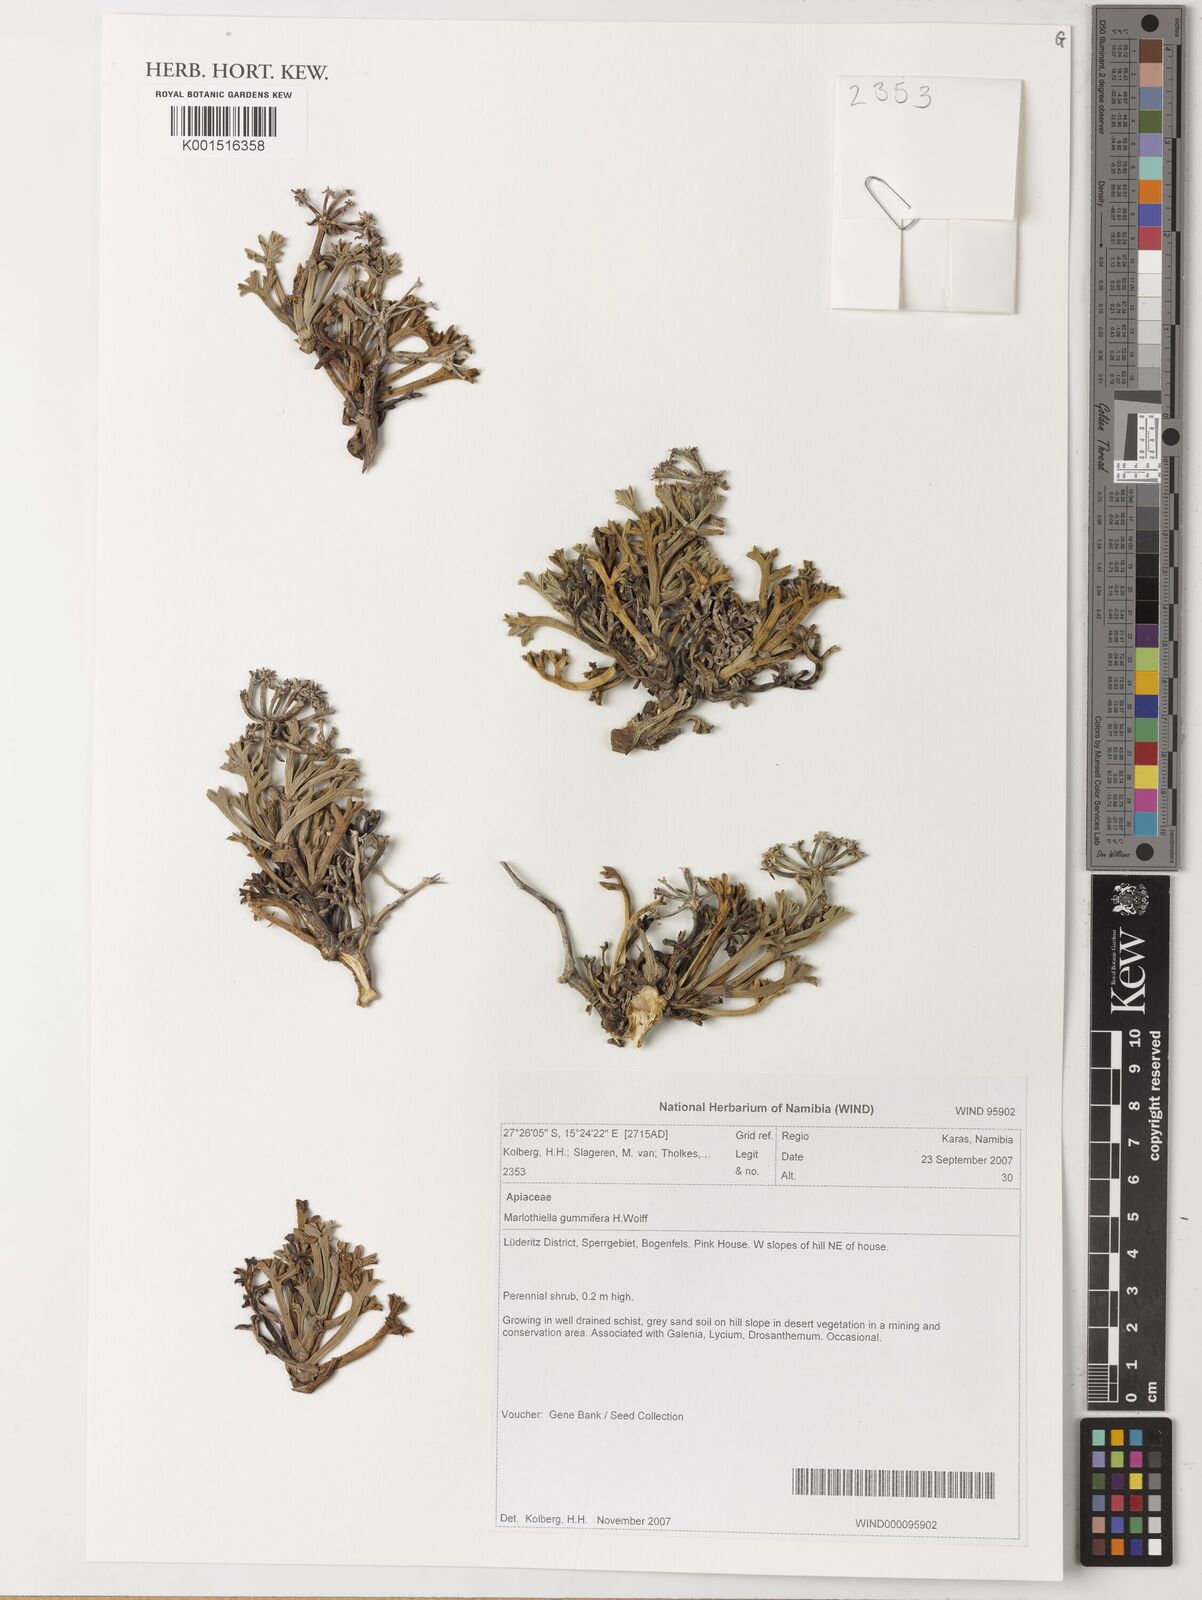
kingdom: Plantae
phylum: Tracheophyta
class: Magnoliopsida
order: Apiales
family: Apiaceae
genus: Marlothiella
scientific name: Marlothiella gummifera
